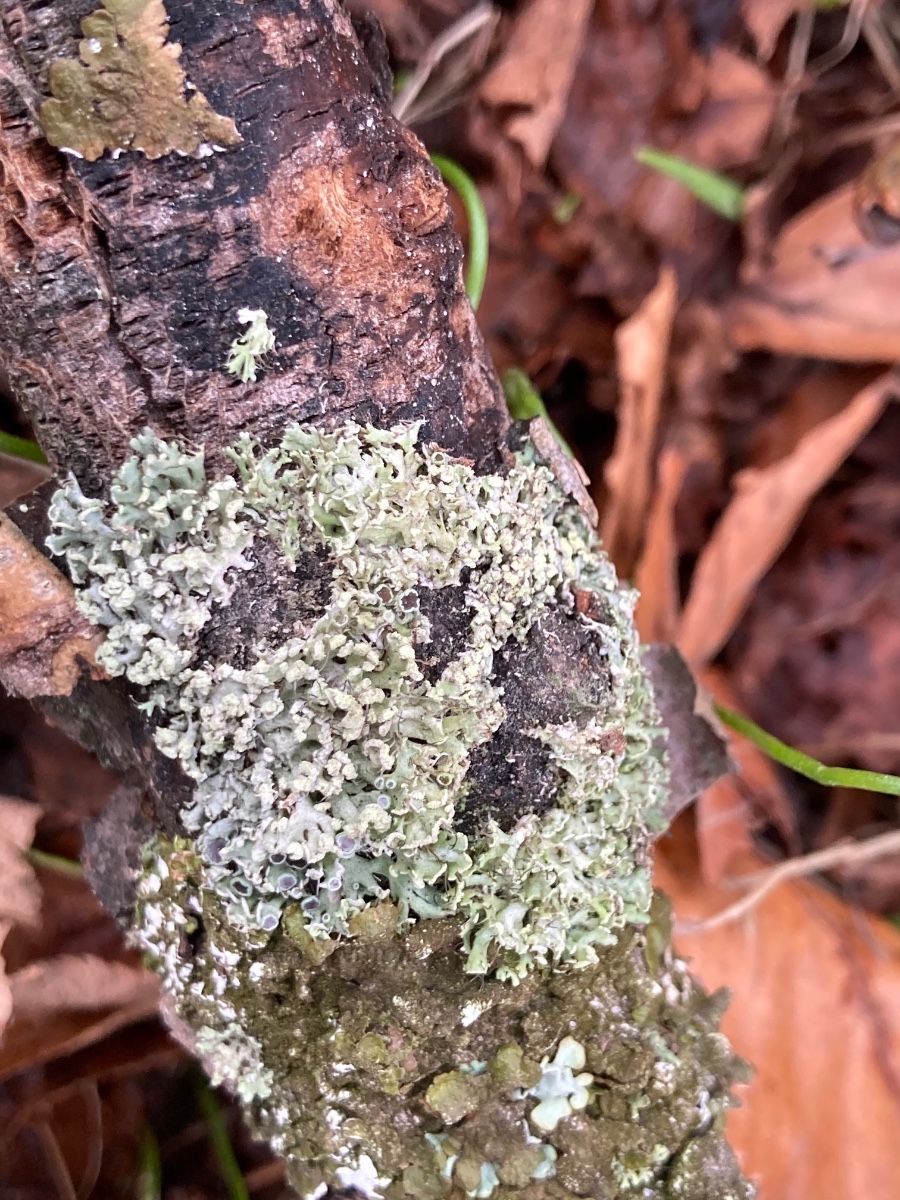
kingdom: Fungi
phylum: Ascomycota
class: Lecanoromycetes
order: Caliciales
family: Physciaceae
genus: Physcia
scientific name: Physcia tenella
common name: spæd rosetlav
